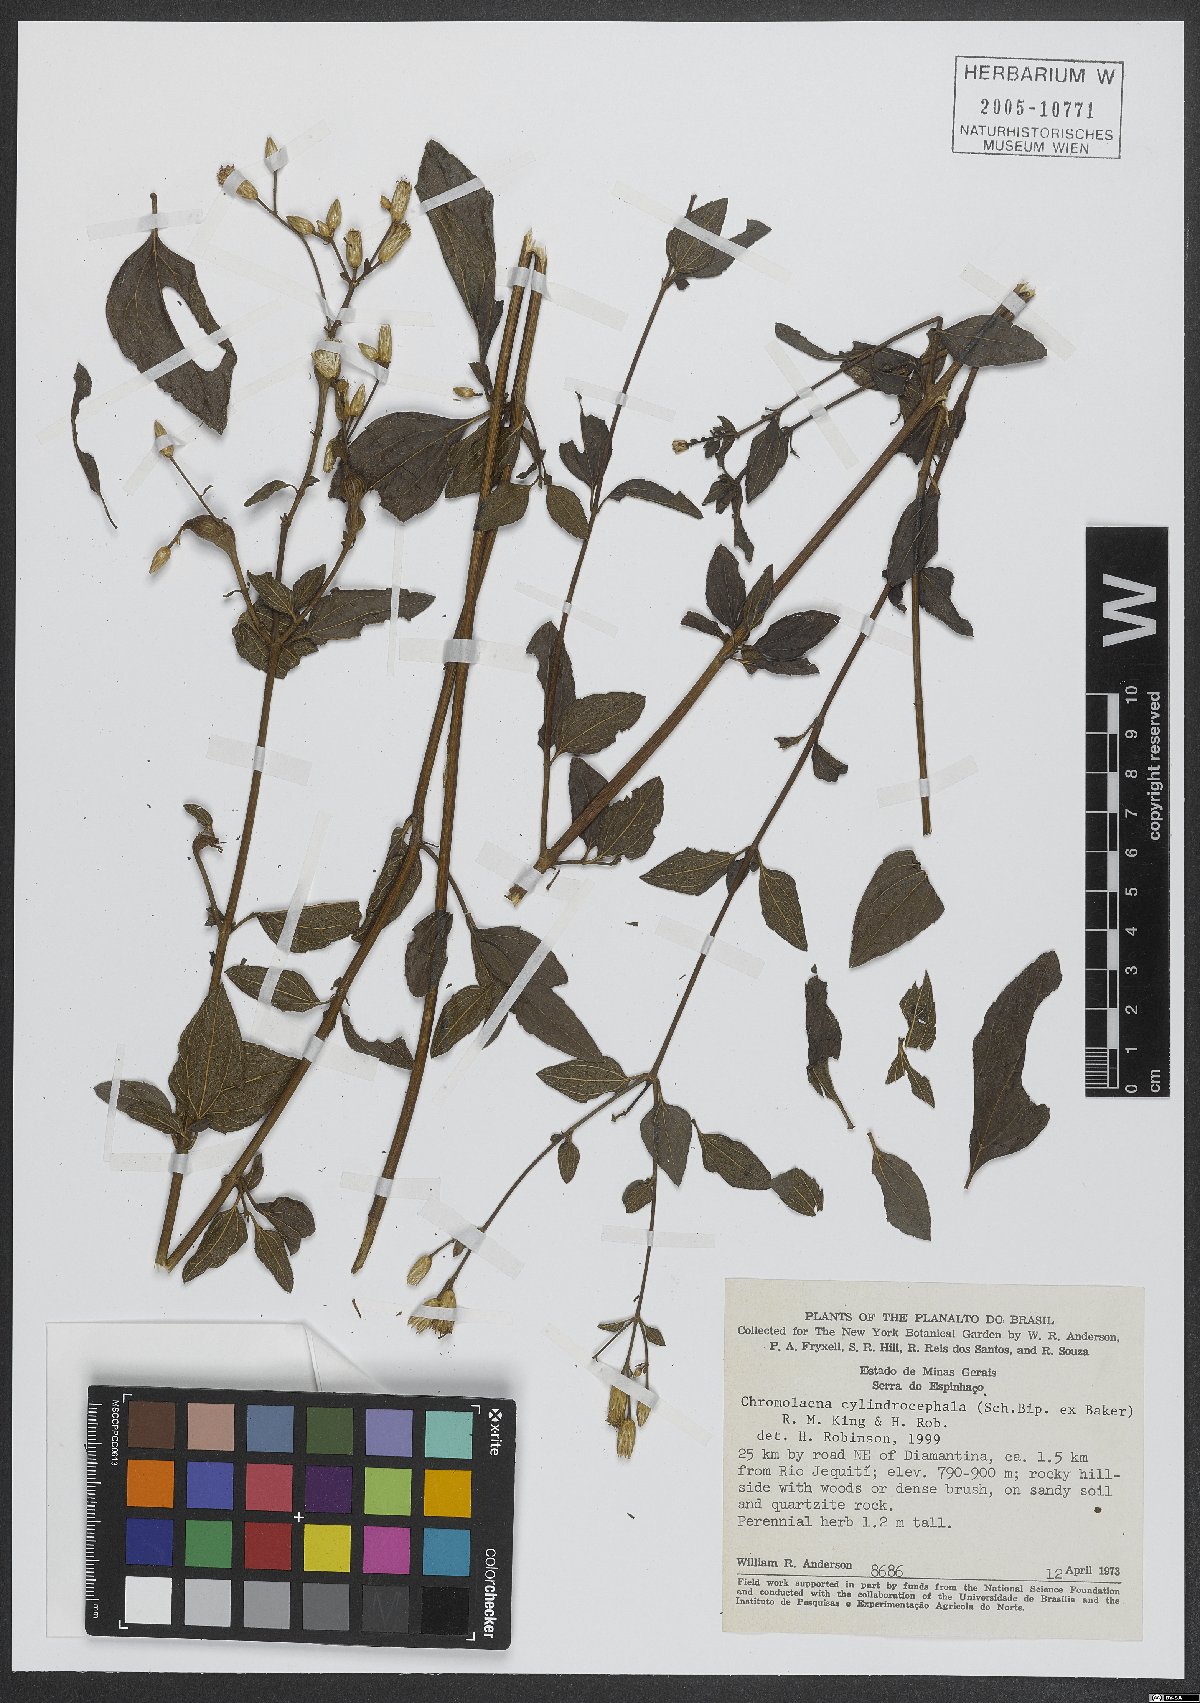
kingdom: Plantae
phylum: Tracheophyta
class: Magnoliopsida
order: Asterales
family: Asteraceae
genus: Chromolaena
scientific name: Chromolaena cylindrocephala
